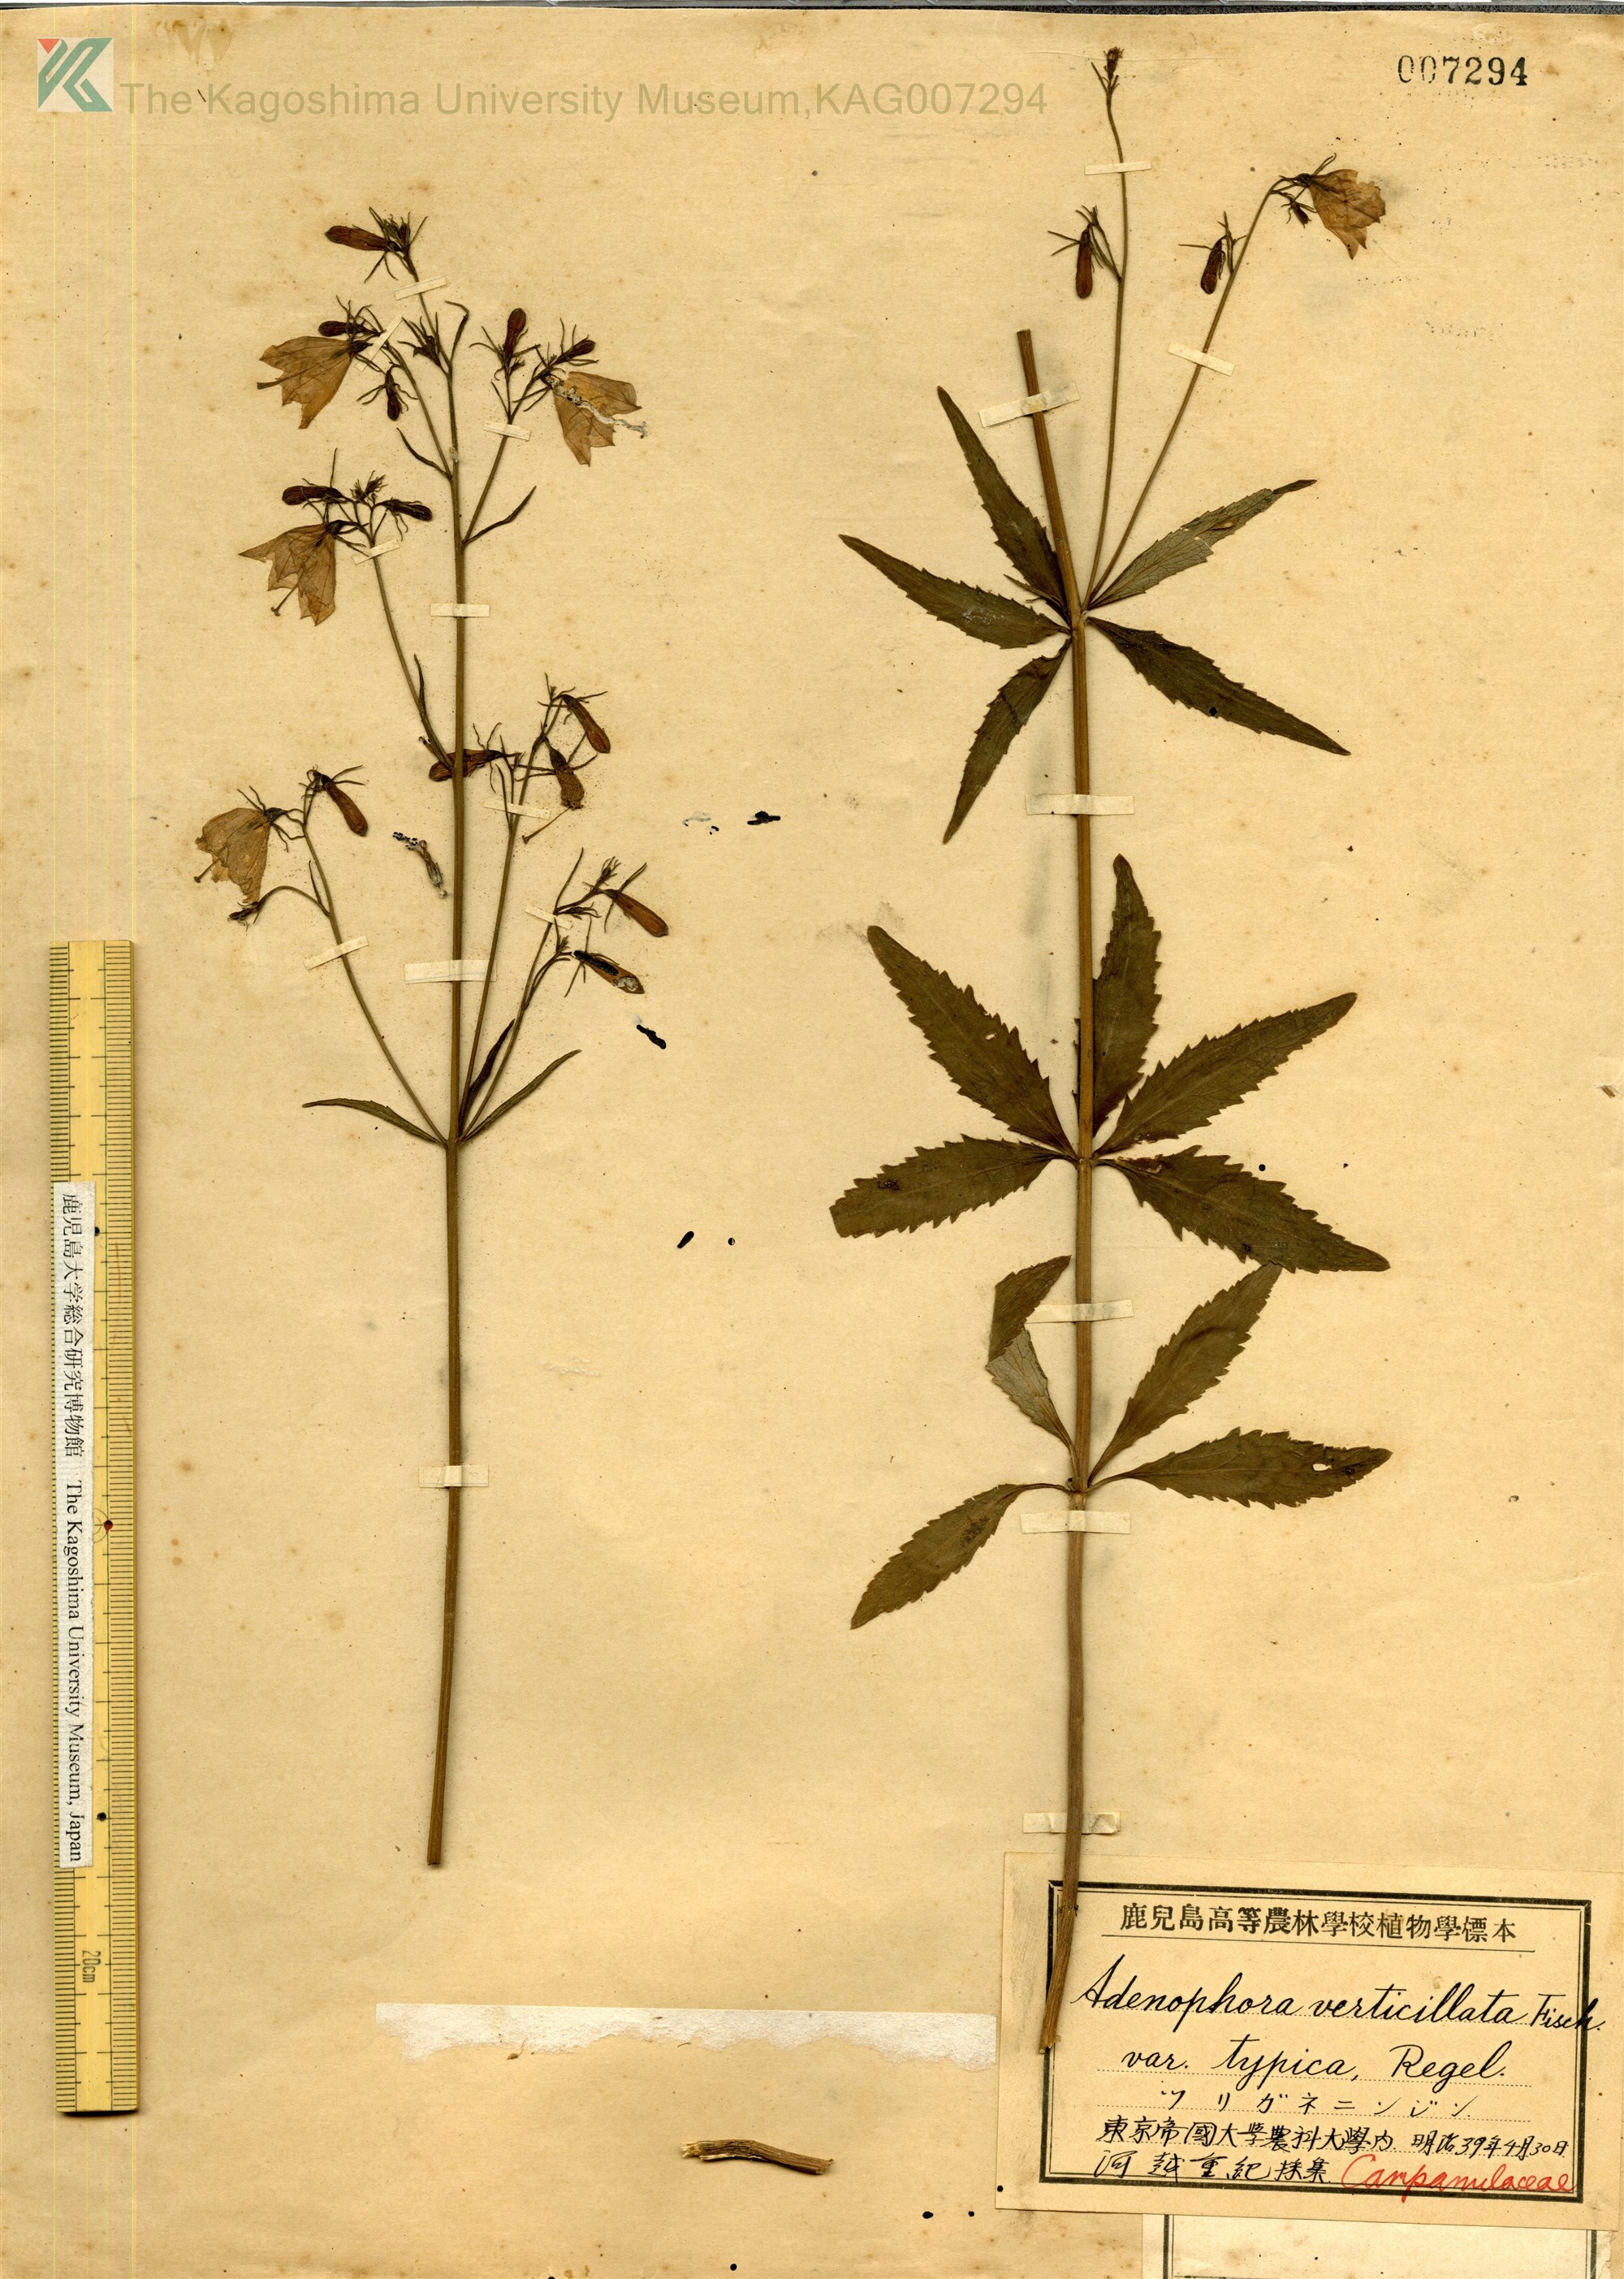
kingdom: Plantae
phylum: Tracheophyta
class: Magnoliopsida
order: Asterales
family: Campanulaceae
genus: Adenophora
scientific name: Adenophora triphylla
